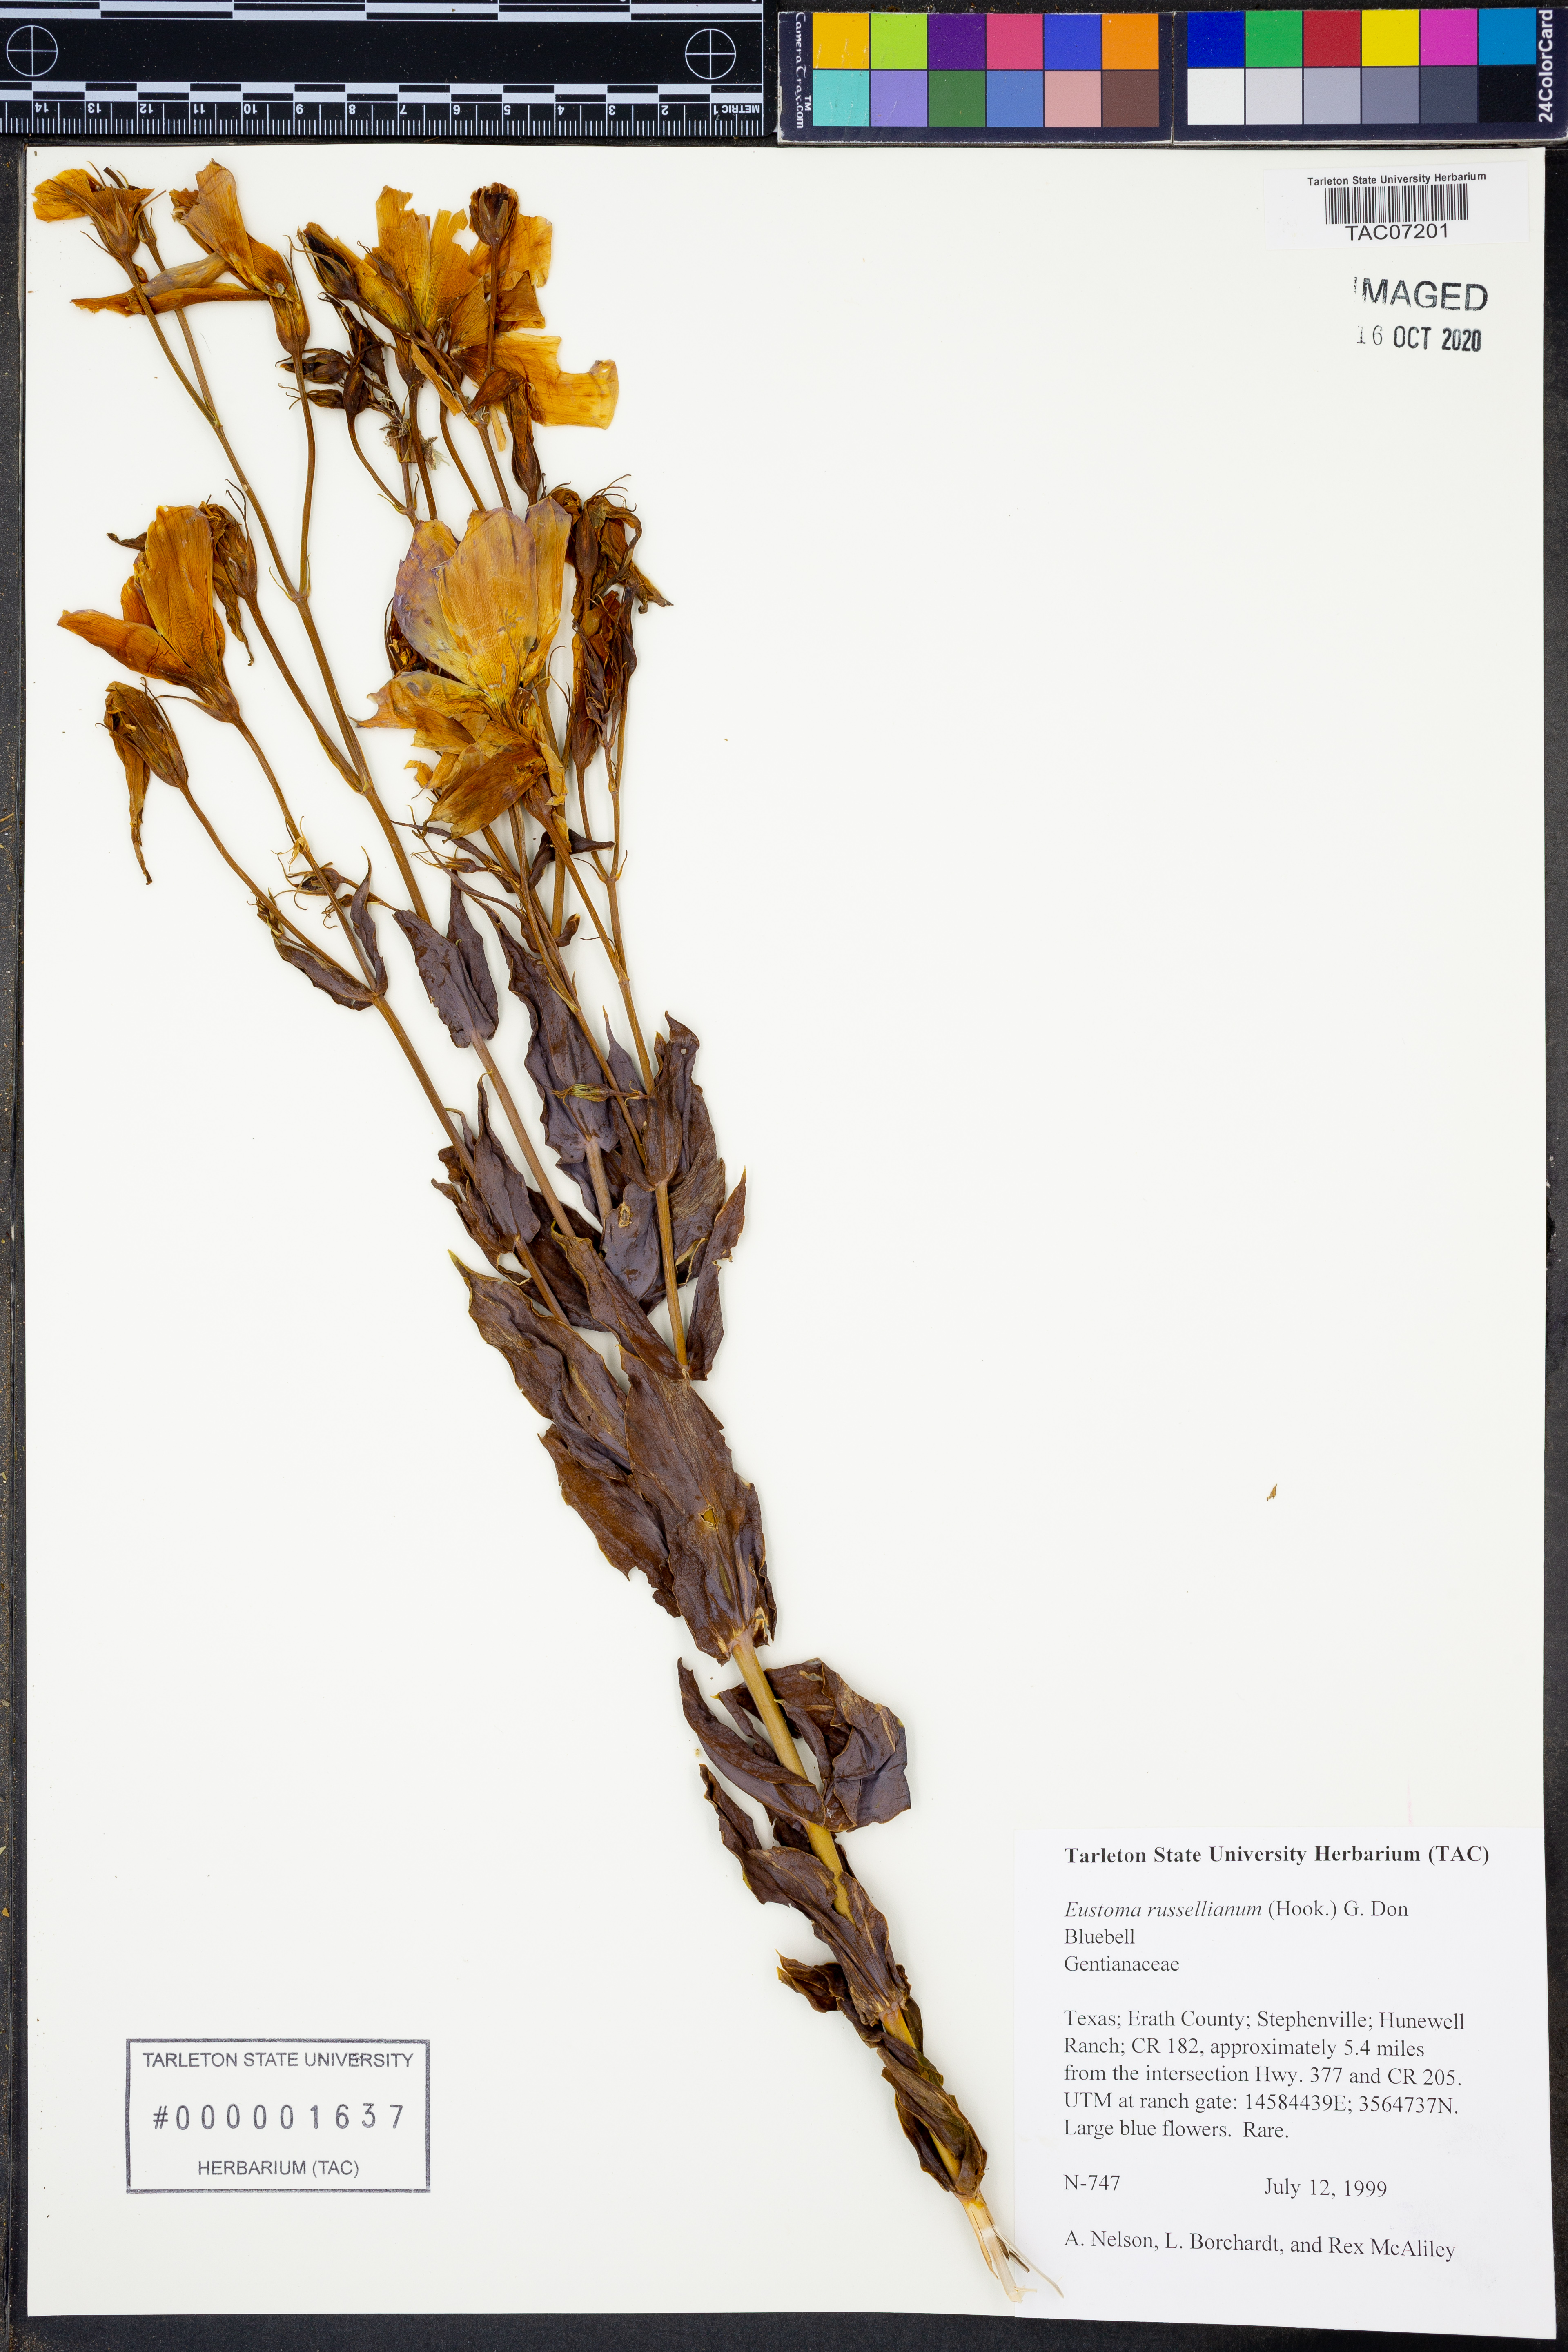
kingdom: Plantae
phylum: Tracheophyta
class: Magnoliopsida
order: Gentianales
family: Gentianaceae
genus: Eustoma
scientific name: Eustoma russellianum
